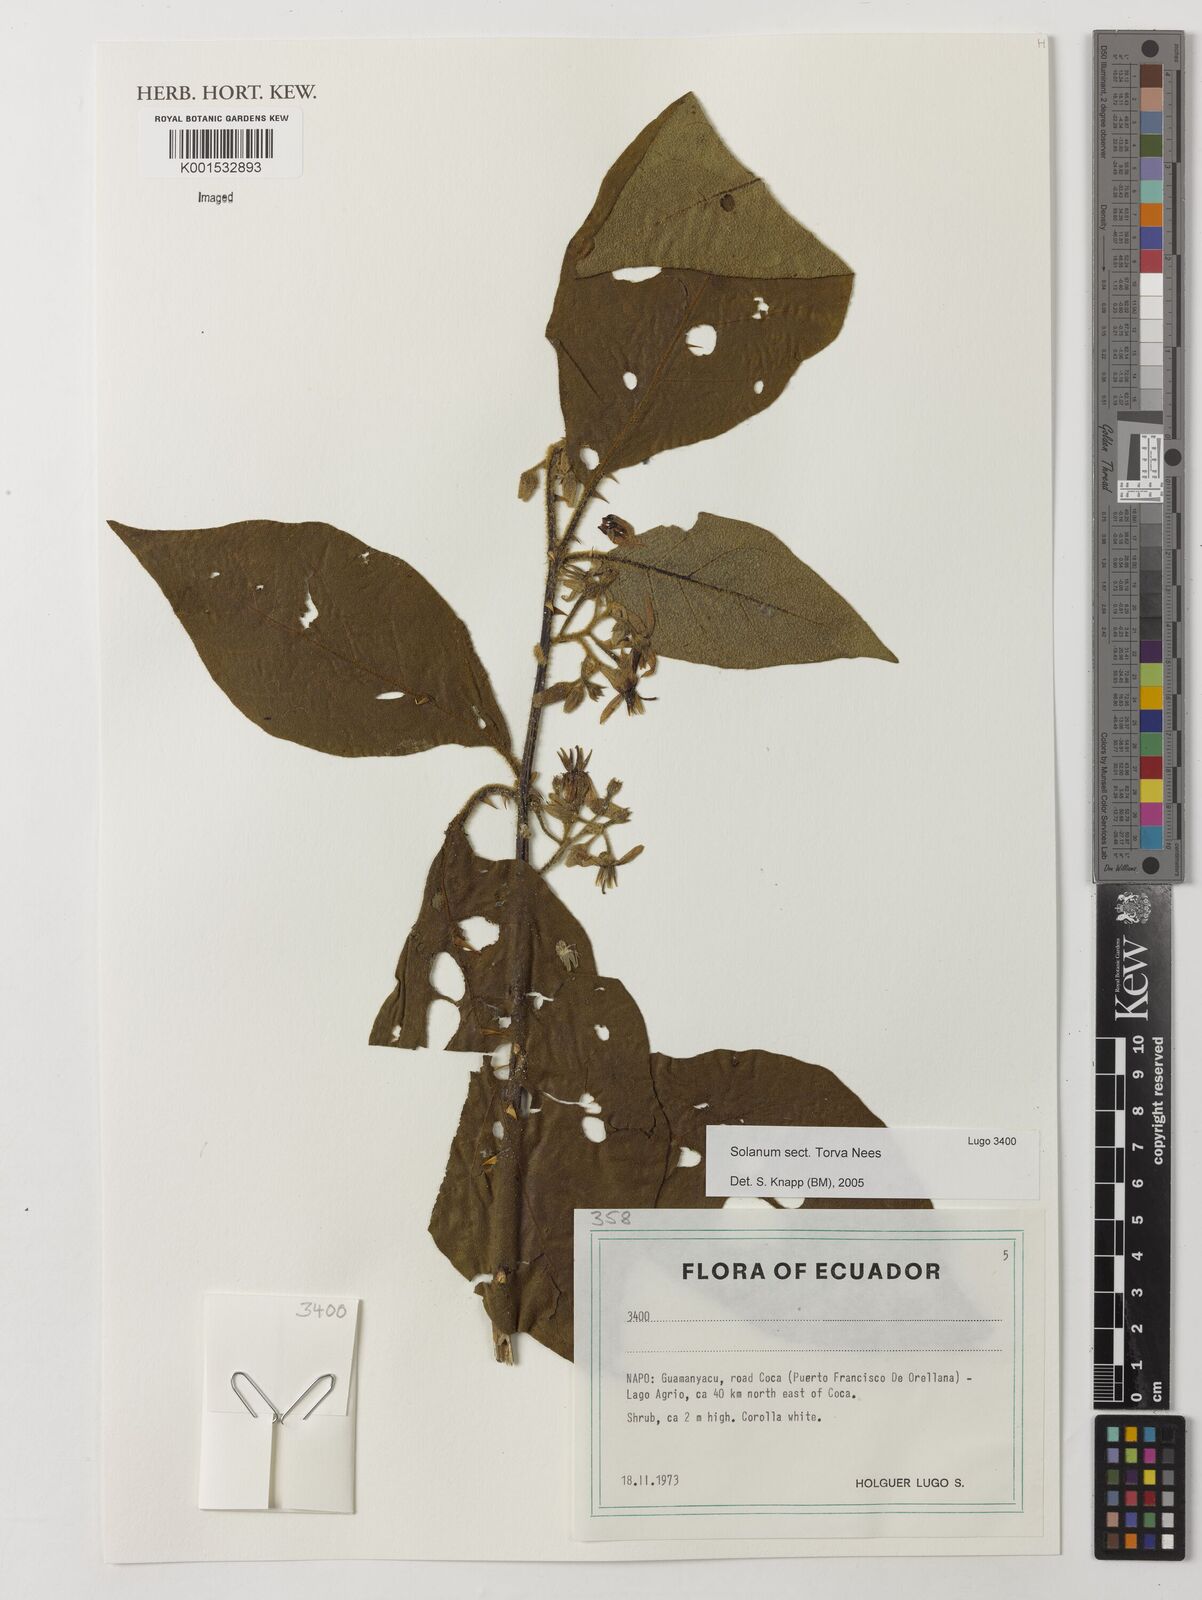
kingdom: Plantae
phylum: Tracheophyta
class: Magnoliopsida
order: Solanales
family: Solanaceae
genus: Solanum
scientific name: Solanum
